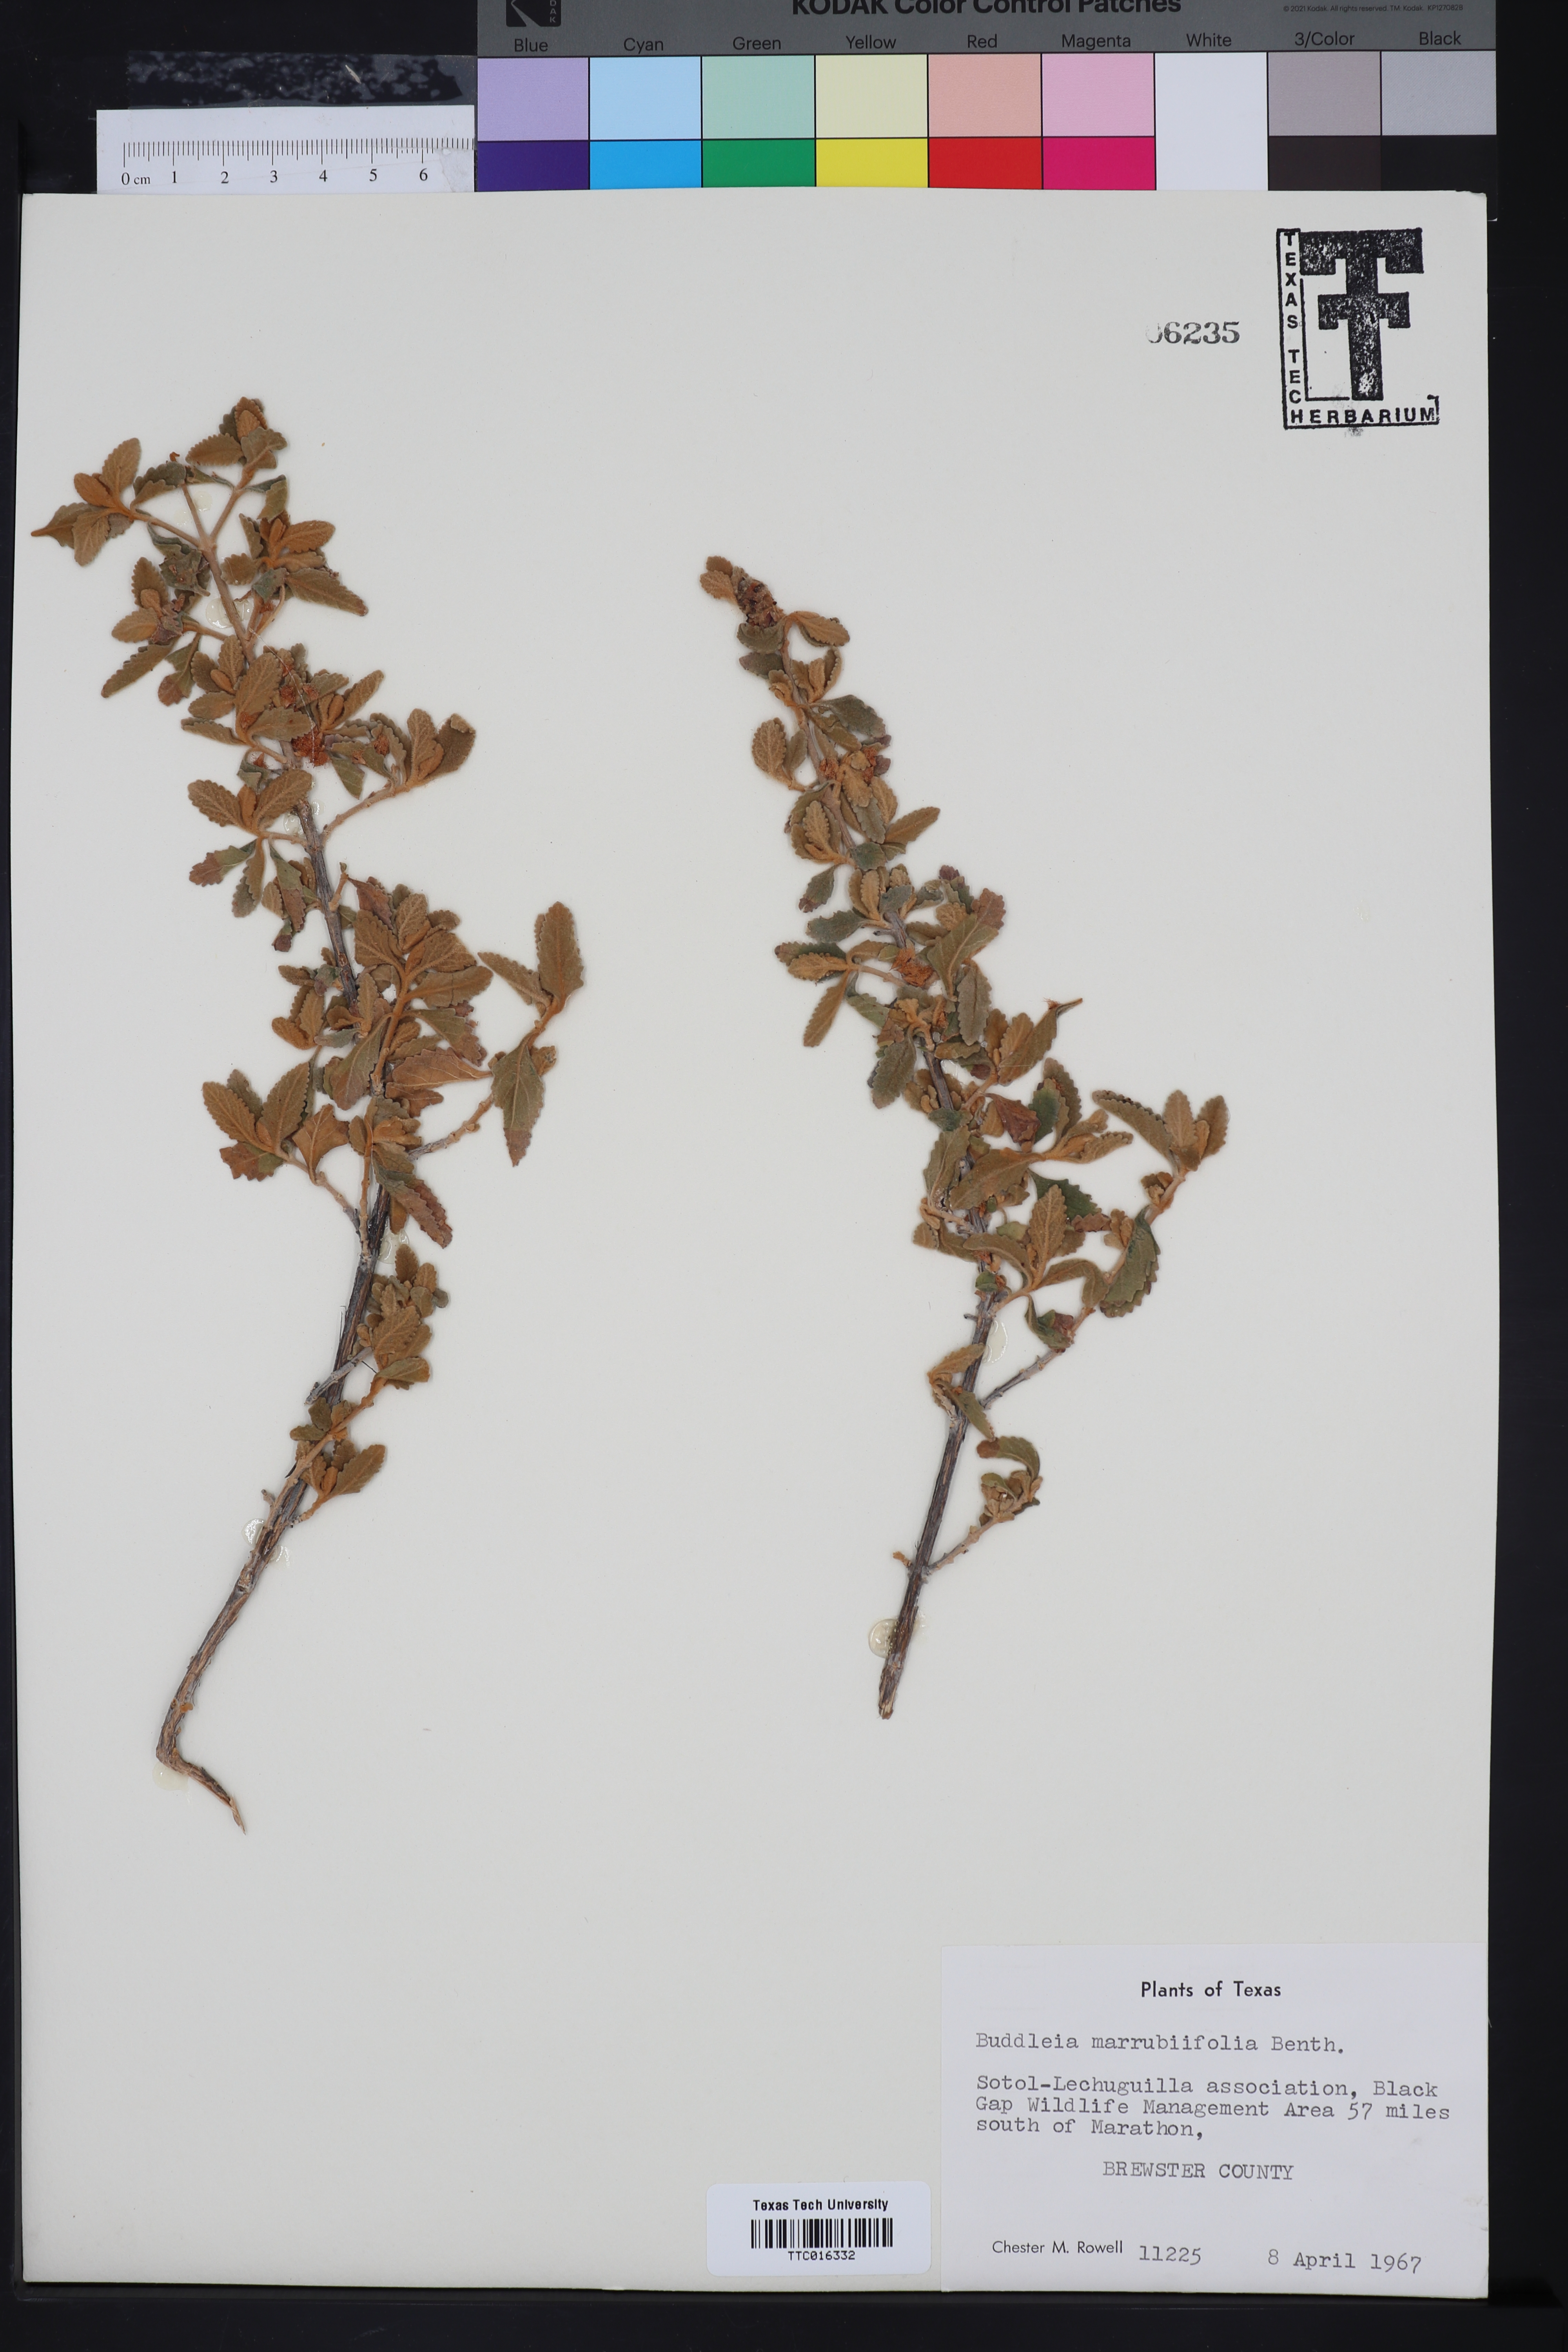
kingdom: Plantae
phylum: Tracheophyta
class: Magnoliopsida
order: Lamiales
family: Scrophulariaceae
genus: Buddleja
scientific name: Buddleja marrubiifolia
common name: Woolly butterfly-bush
